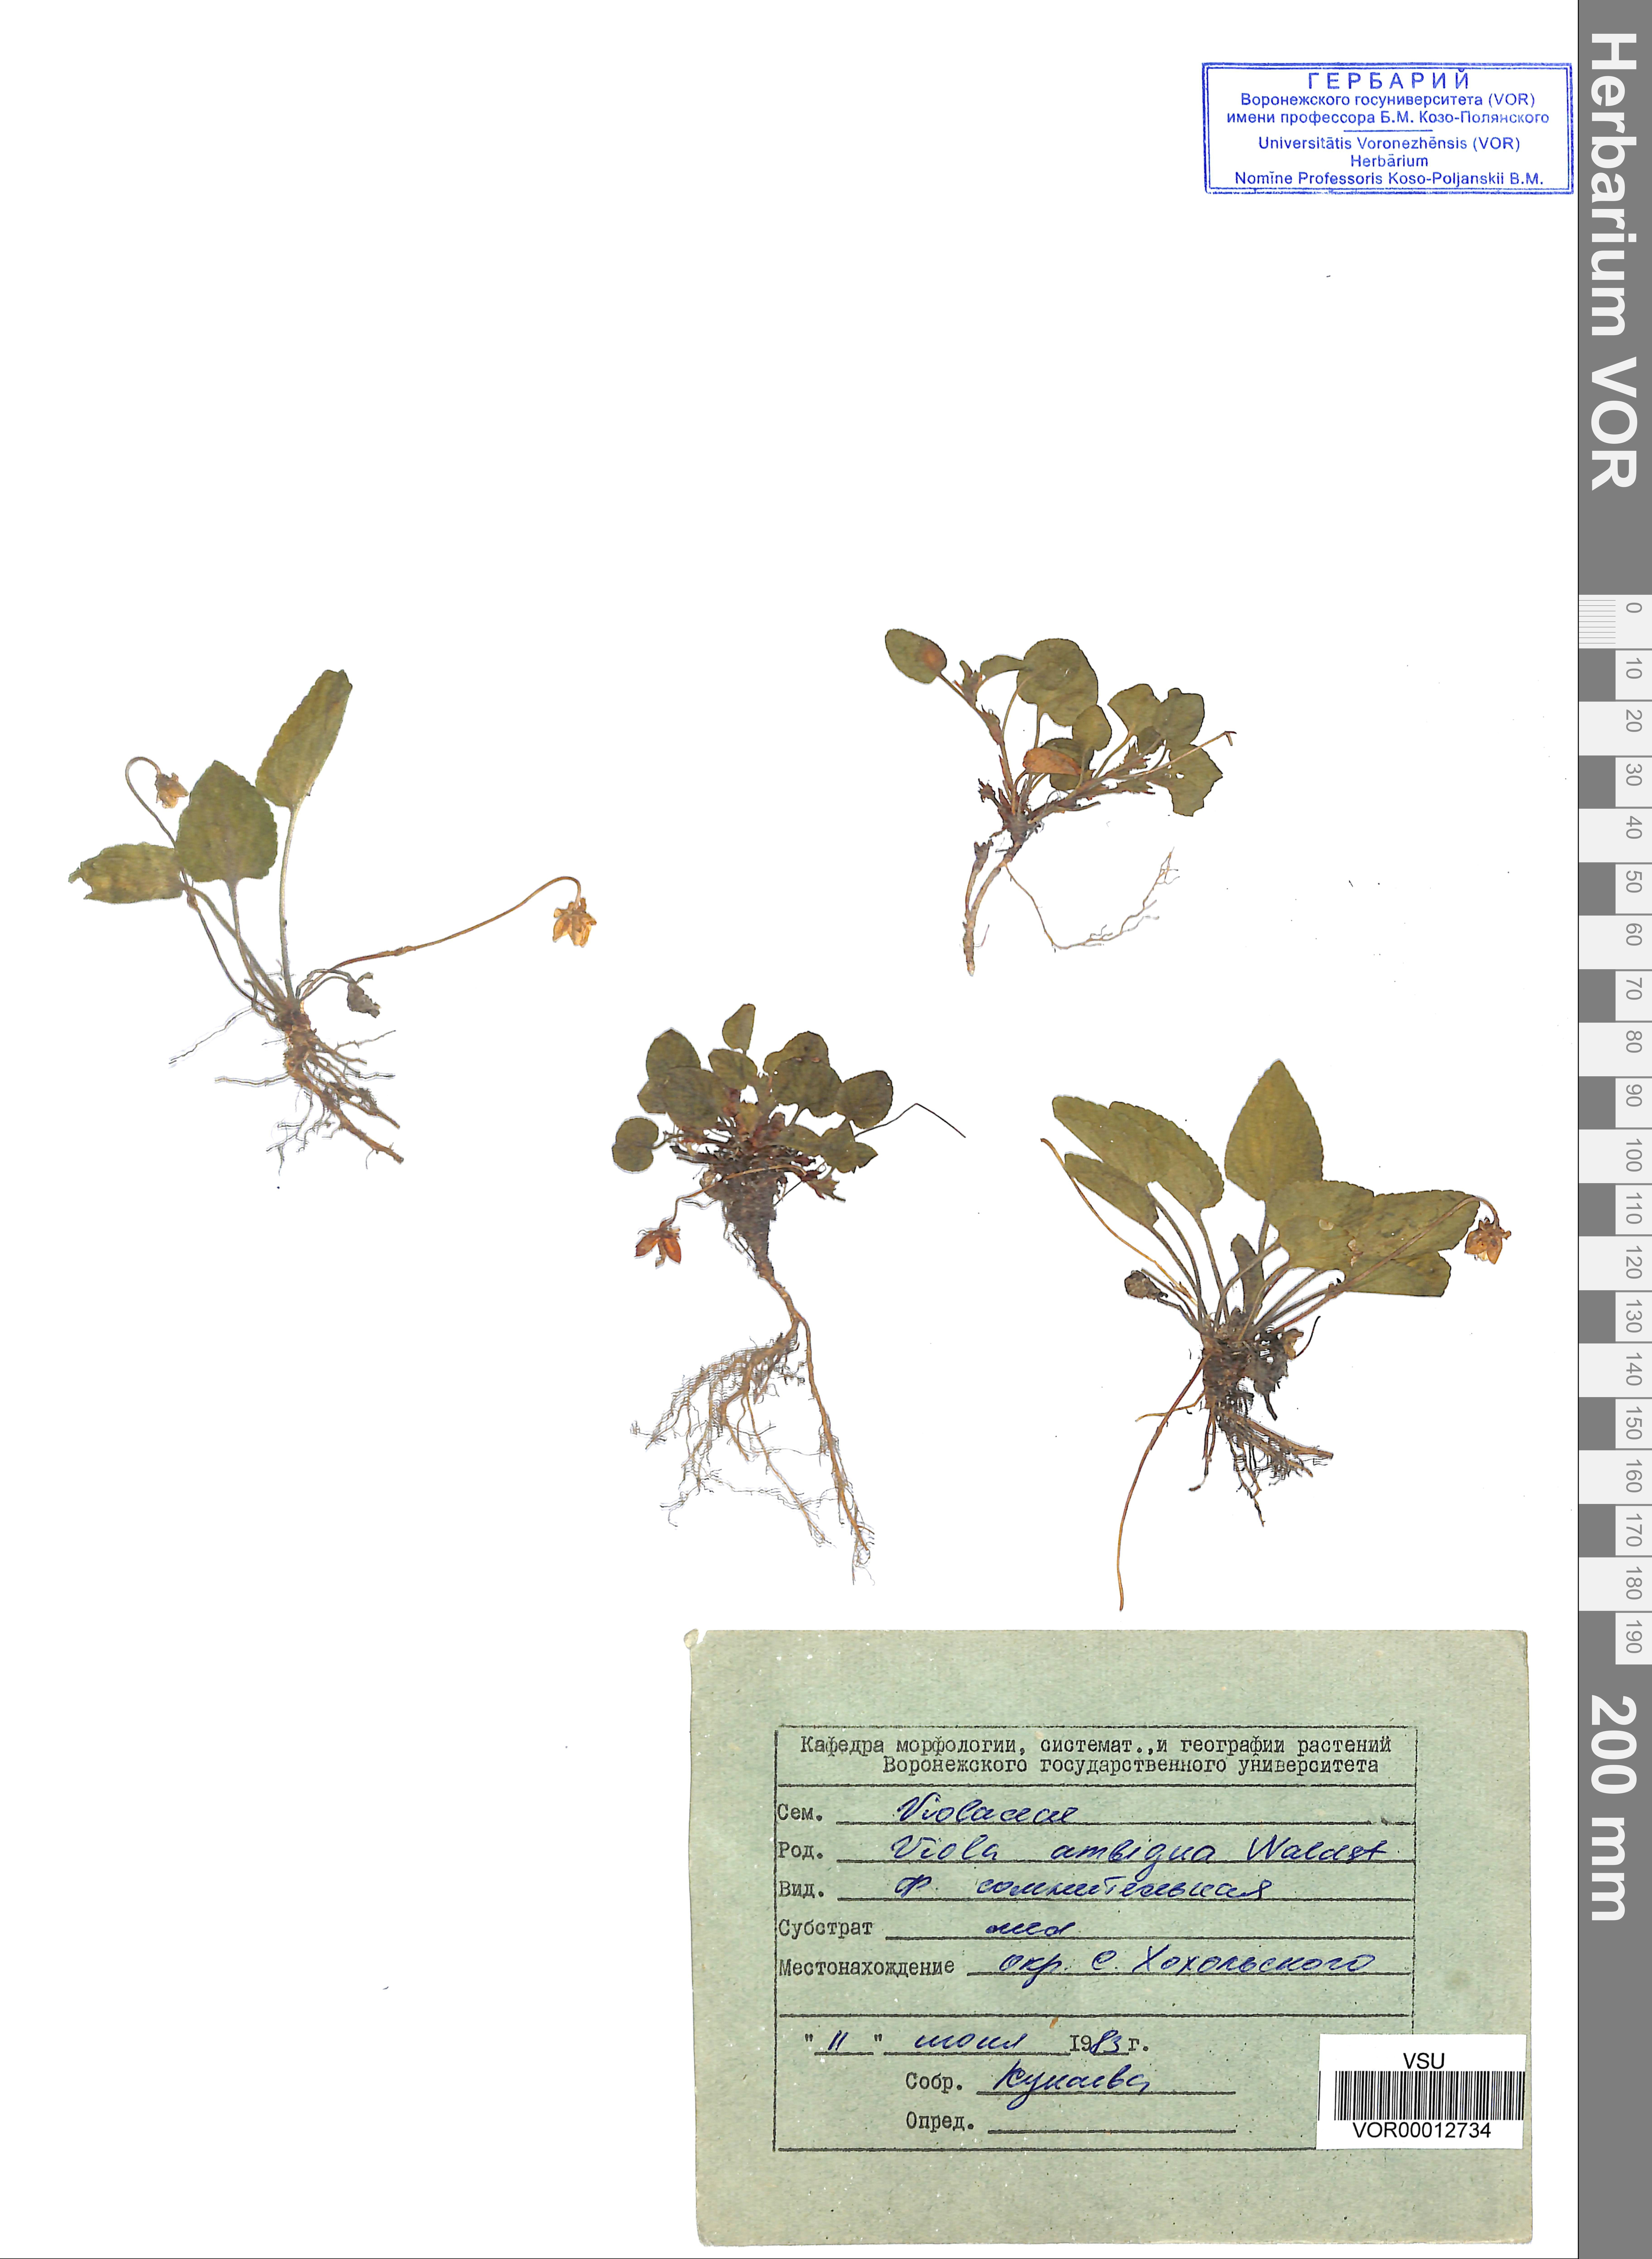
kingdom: Plantae
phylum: Tracheophyta
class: Magnoliopsida
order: Malpighiales
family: Violaceae
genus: Viola
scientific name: Viola ambigua
